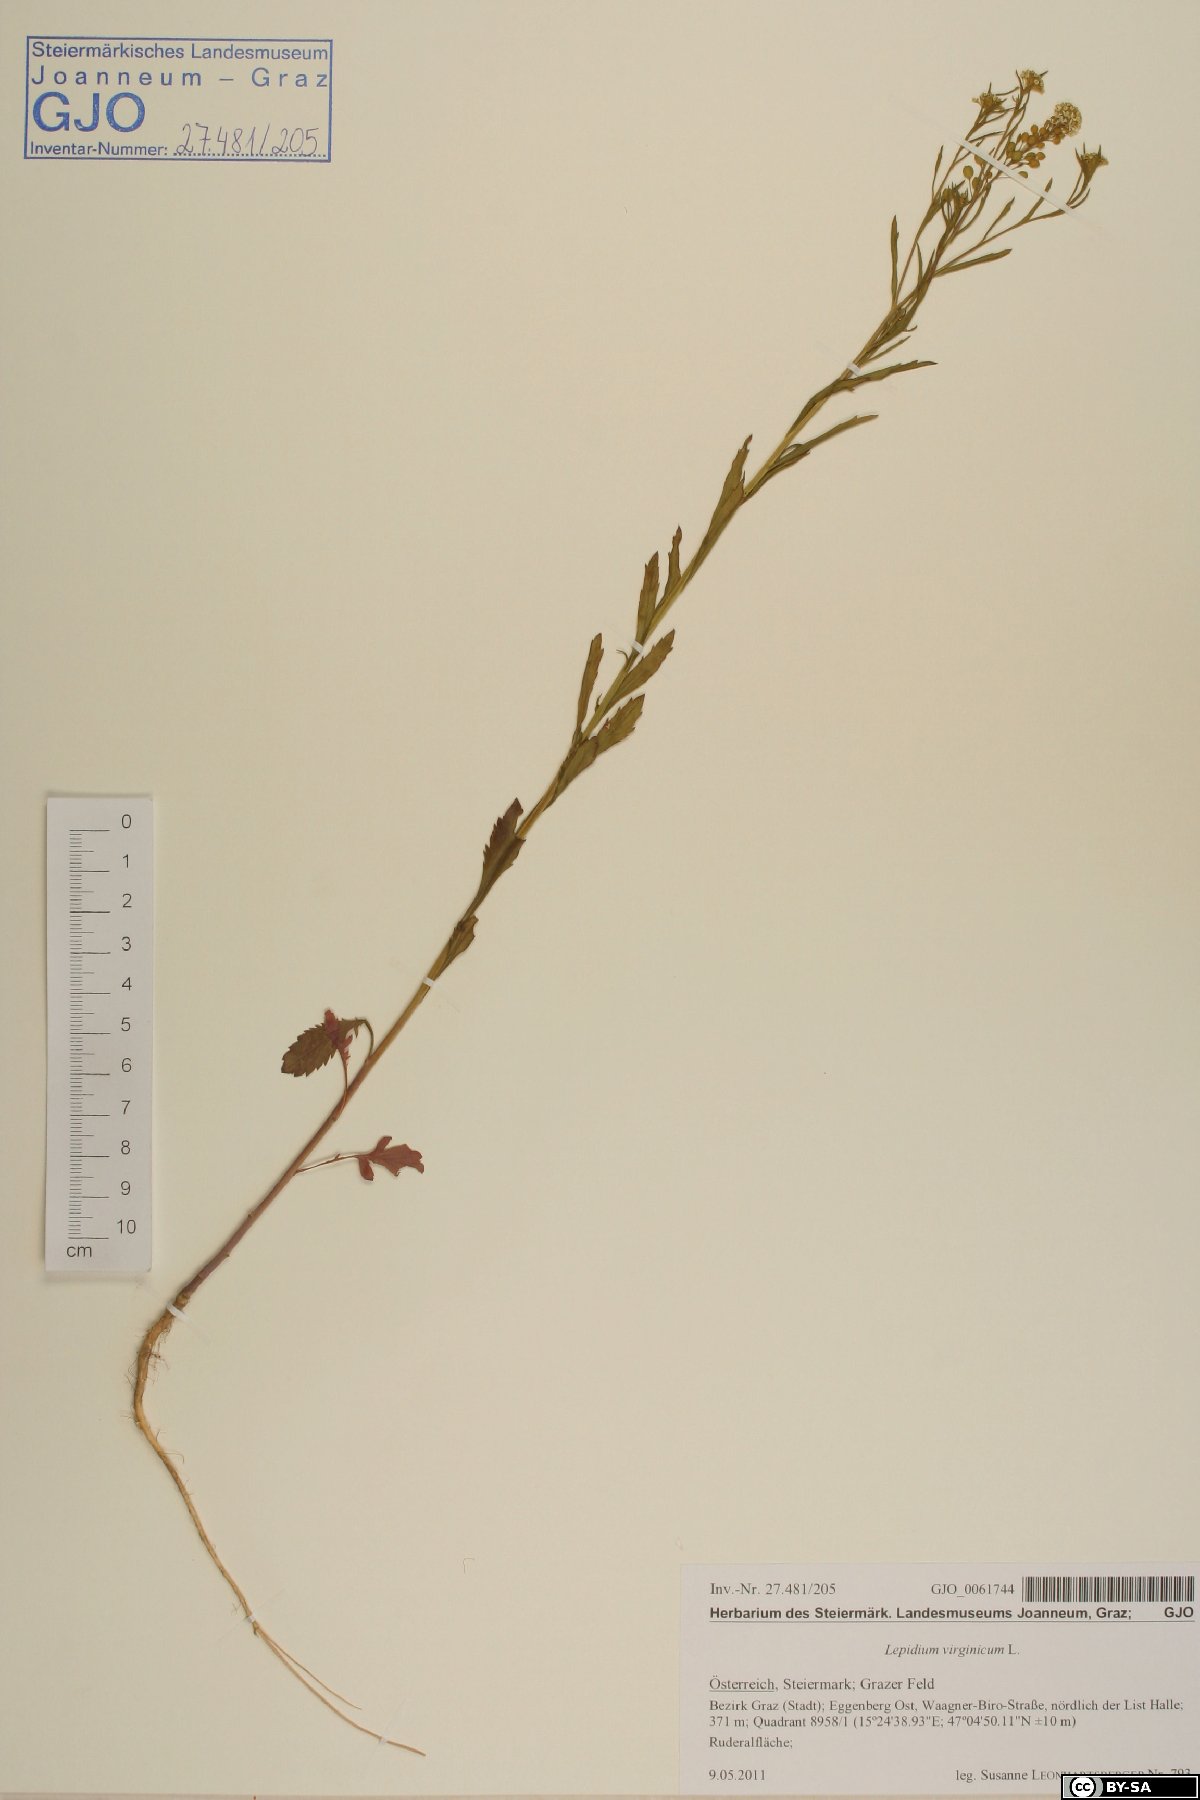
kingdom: Plantae
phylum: Tracheophyta
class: Magnoliopsida
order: Brassicales
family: Brassicaceae
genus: Lepidium
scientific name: Lepidium virginicum
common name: Least pepperwort
